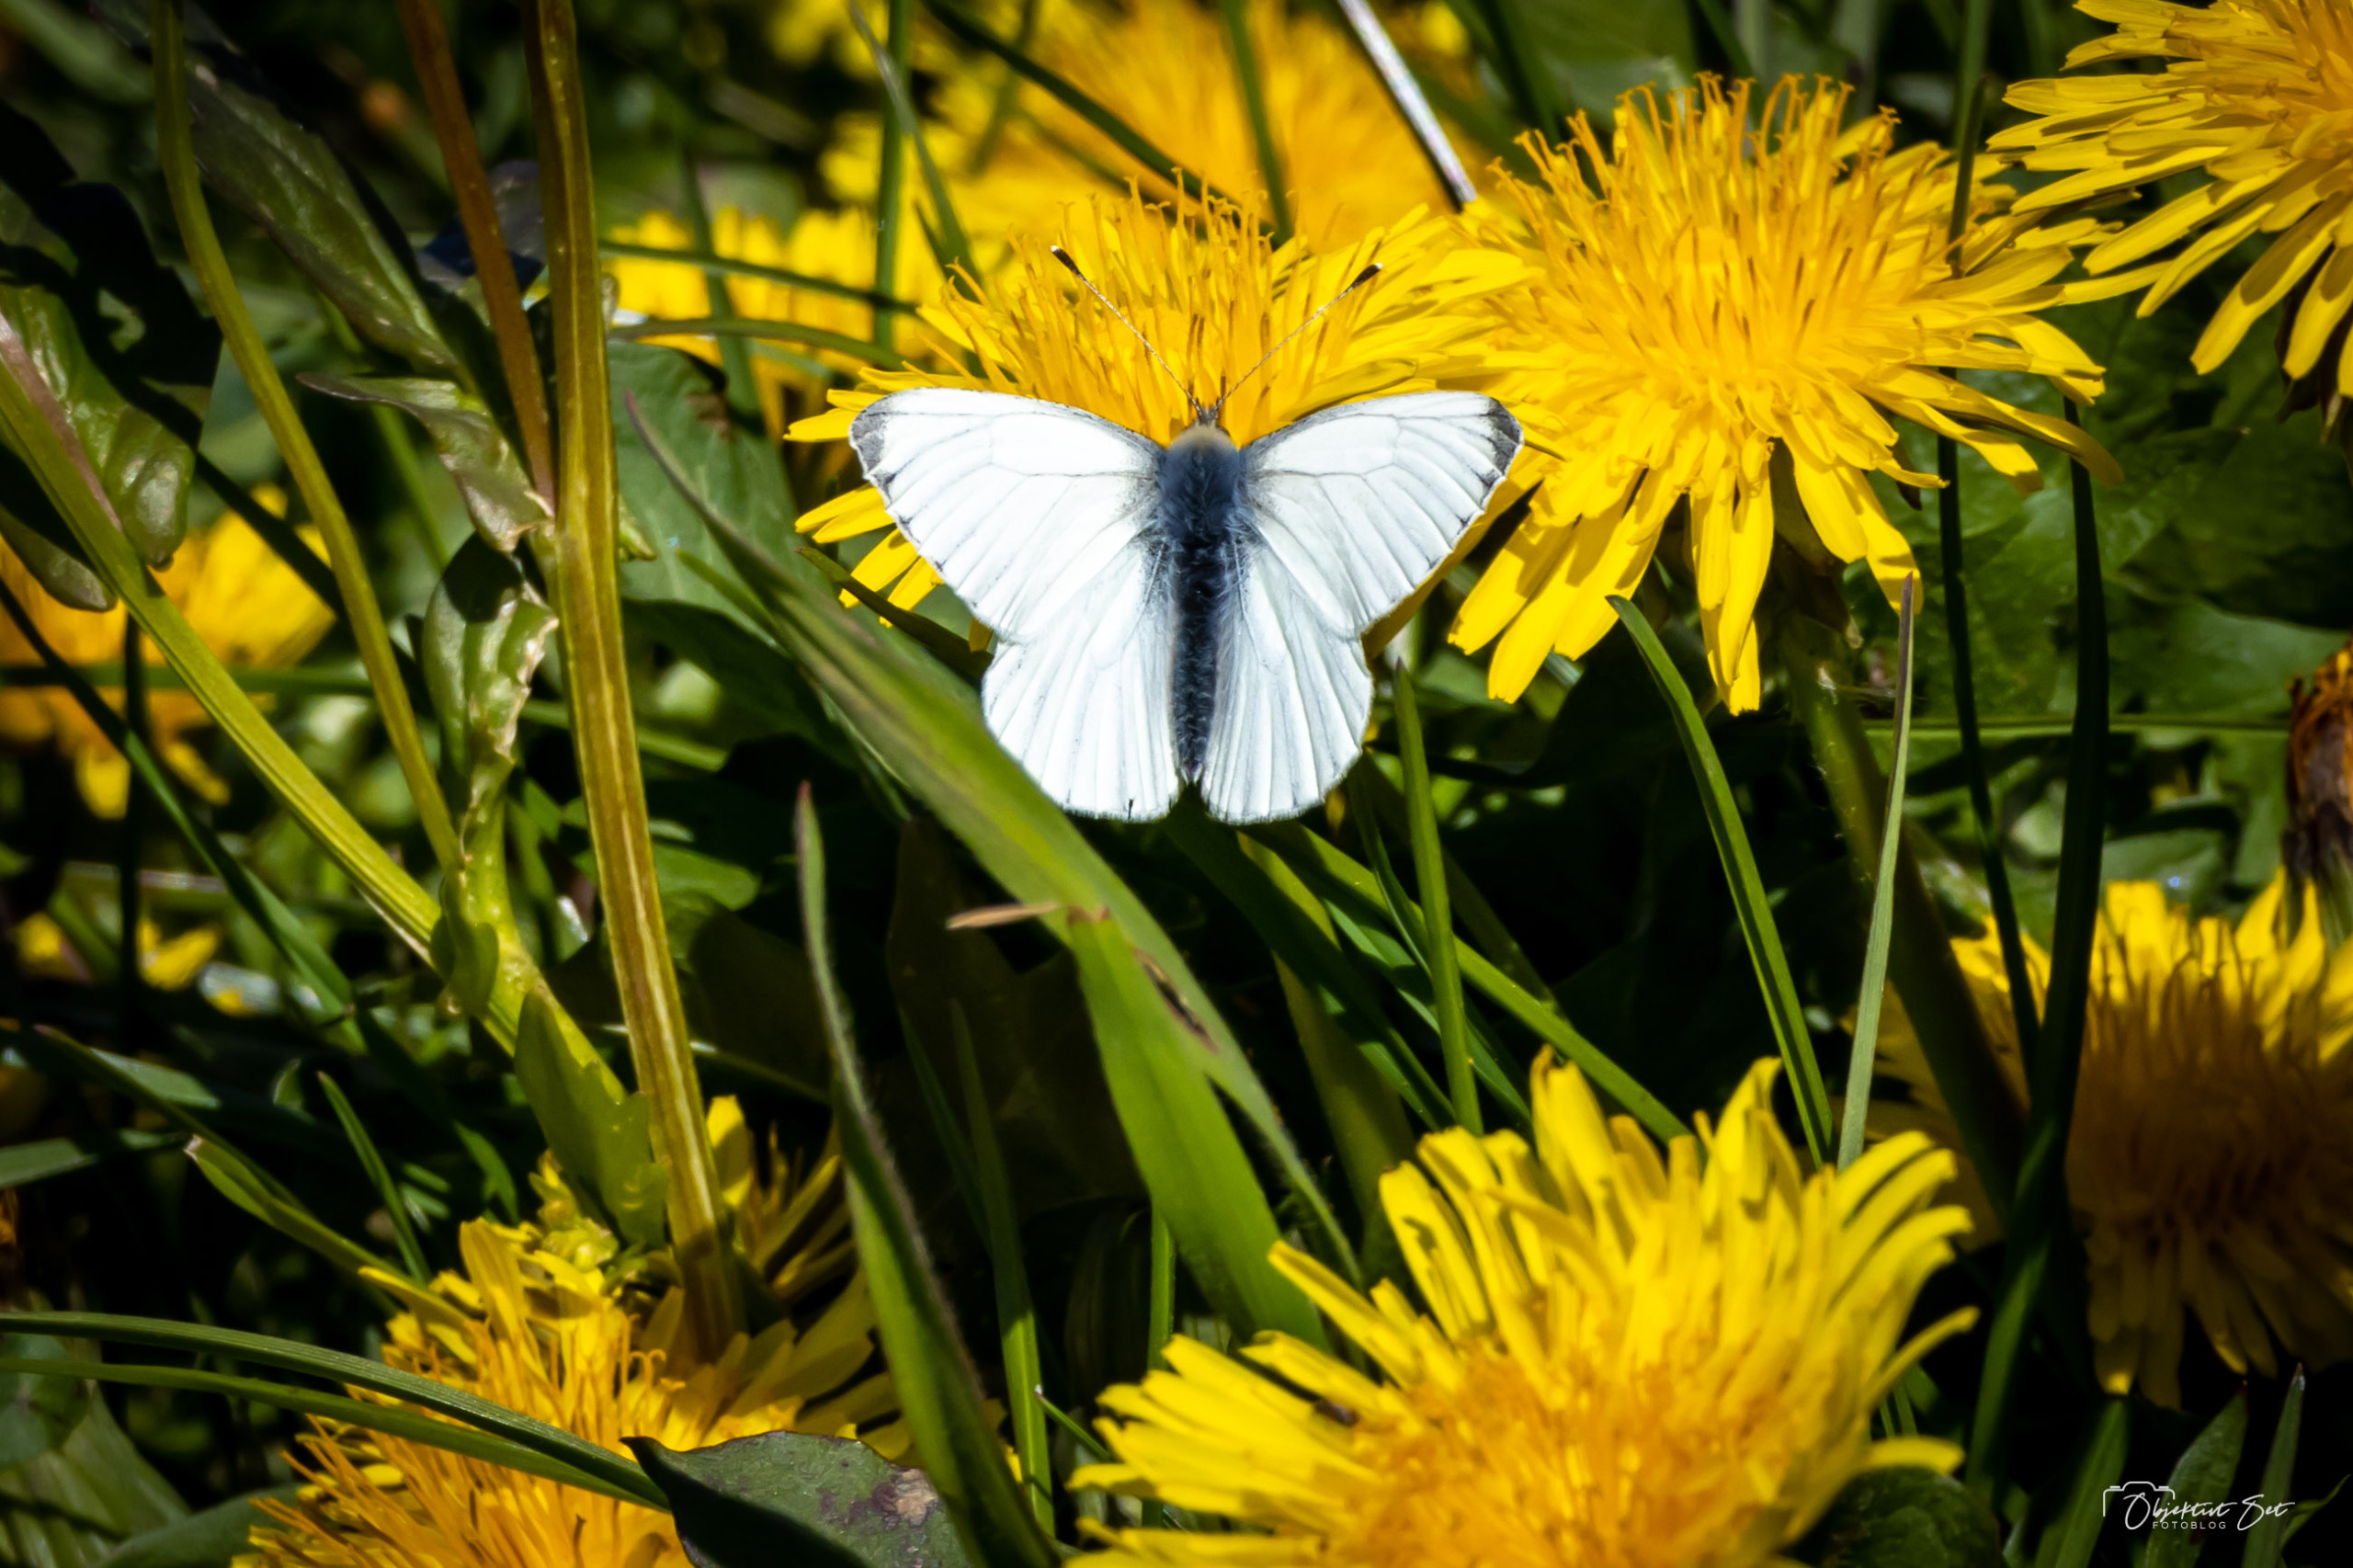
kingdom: Animalia
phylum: Arthropoda
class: Insecta
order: Lepidoptera
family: Pieridae
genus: Pieris
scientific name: Pieris napi
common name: Grønåret kålsommerfugl
